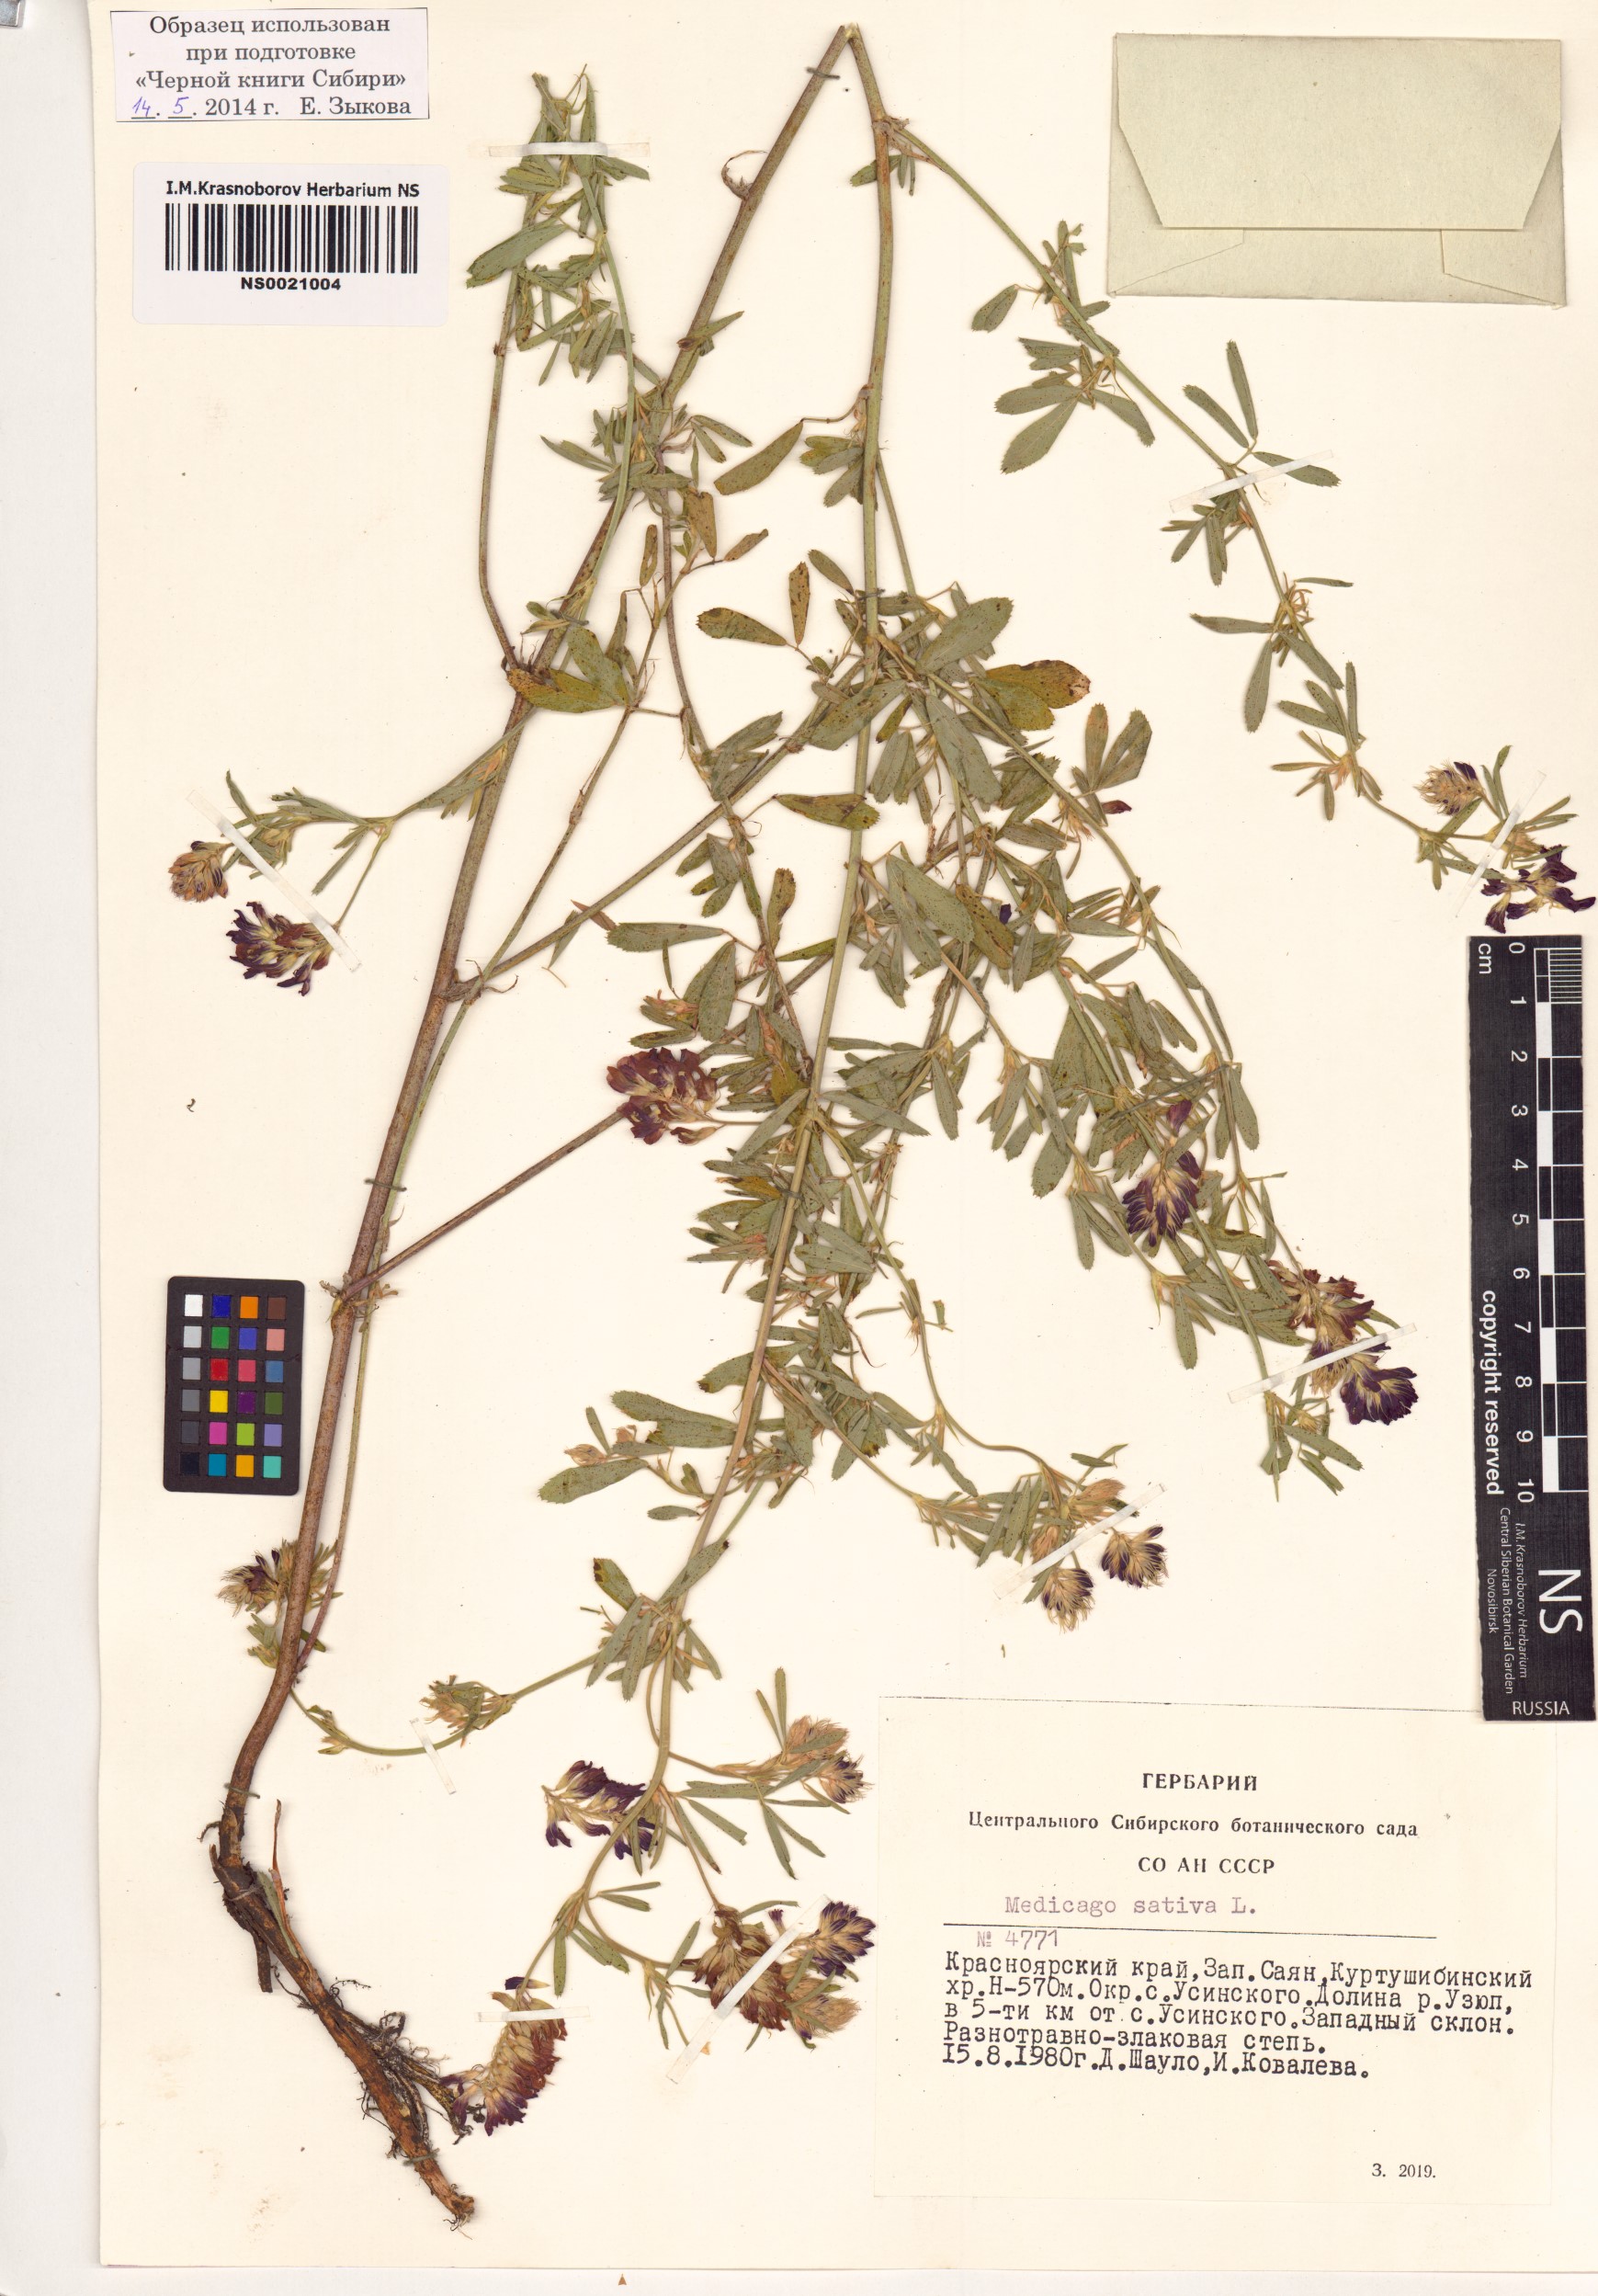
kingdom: Plantae
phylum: Tracheophyta
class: Magnoliopsida
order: Fabales
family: Fabaceae
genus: Medicago
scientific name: Medicago sativa
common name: Alfalfa
